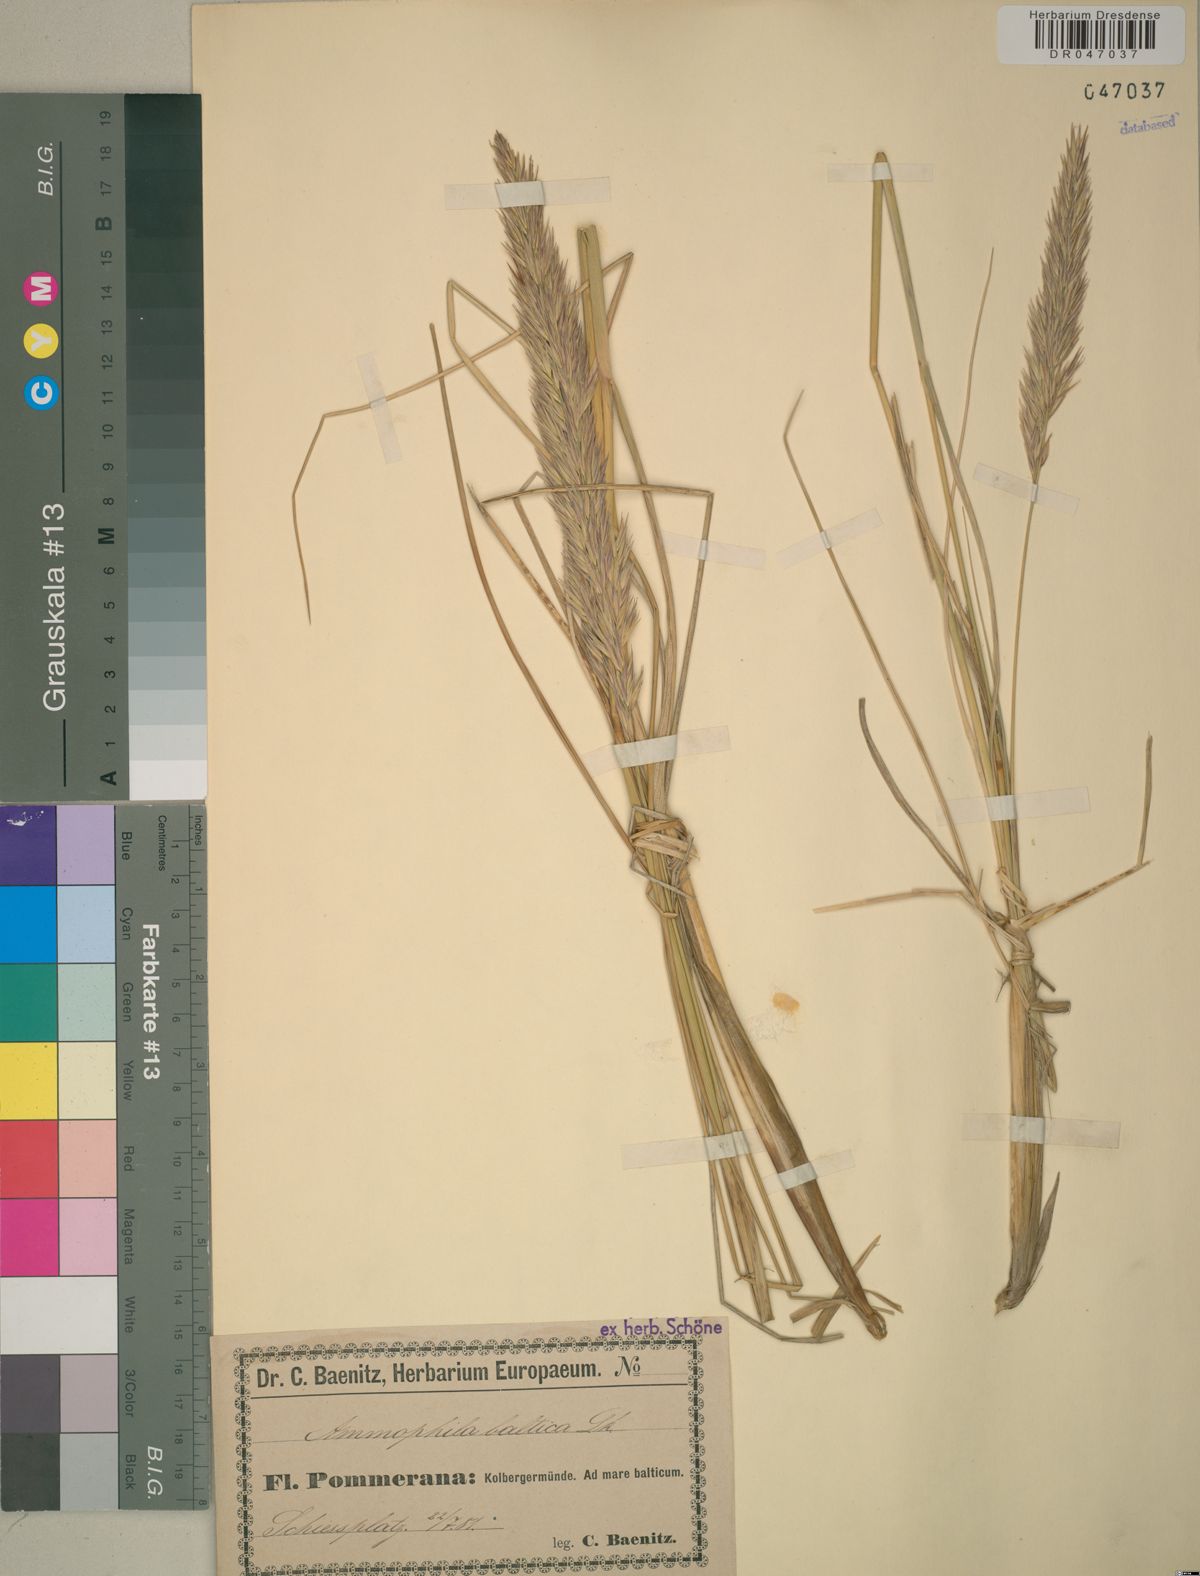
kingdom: Plantae
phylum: Tracheophyta
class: Liliopsida
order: Poales
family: Poaceae
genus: Calamagrostis
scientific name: Calamagrostis baltica
